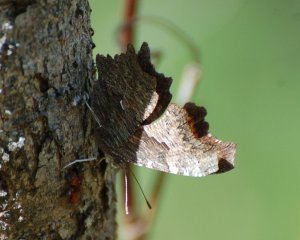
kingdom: Animalia
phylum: Arthropoda
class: Insecta
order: Lepidoptera
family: Nymphalidae
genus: Polygonia
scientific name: Polygonia progne
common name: Gray Comma
